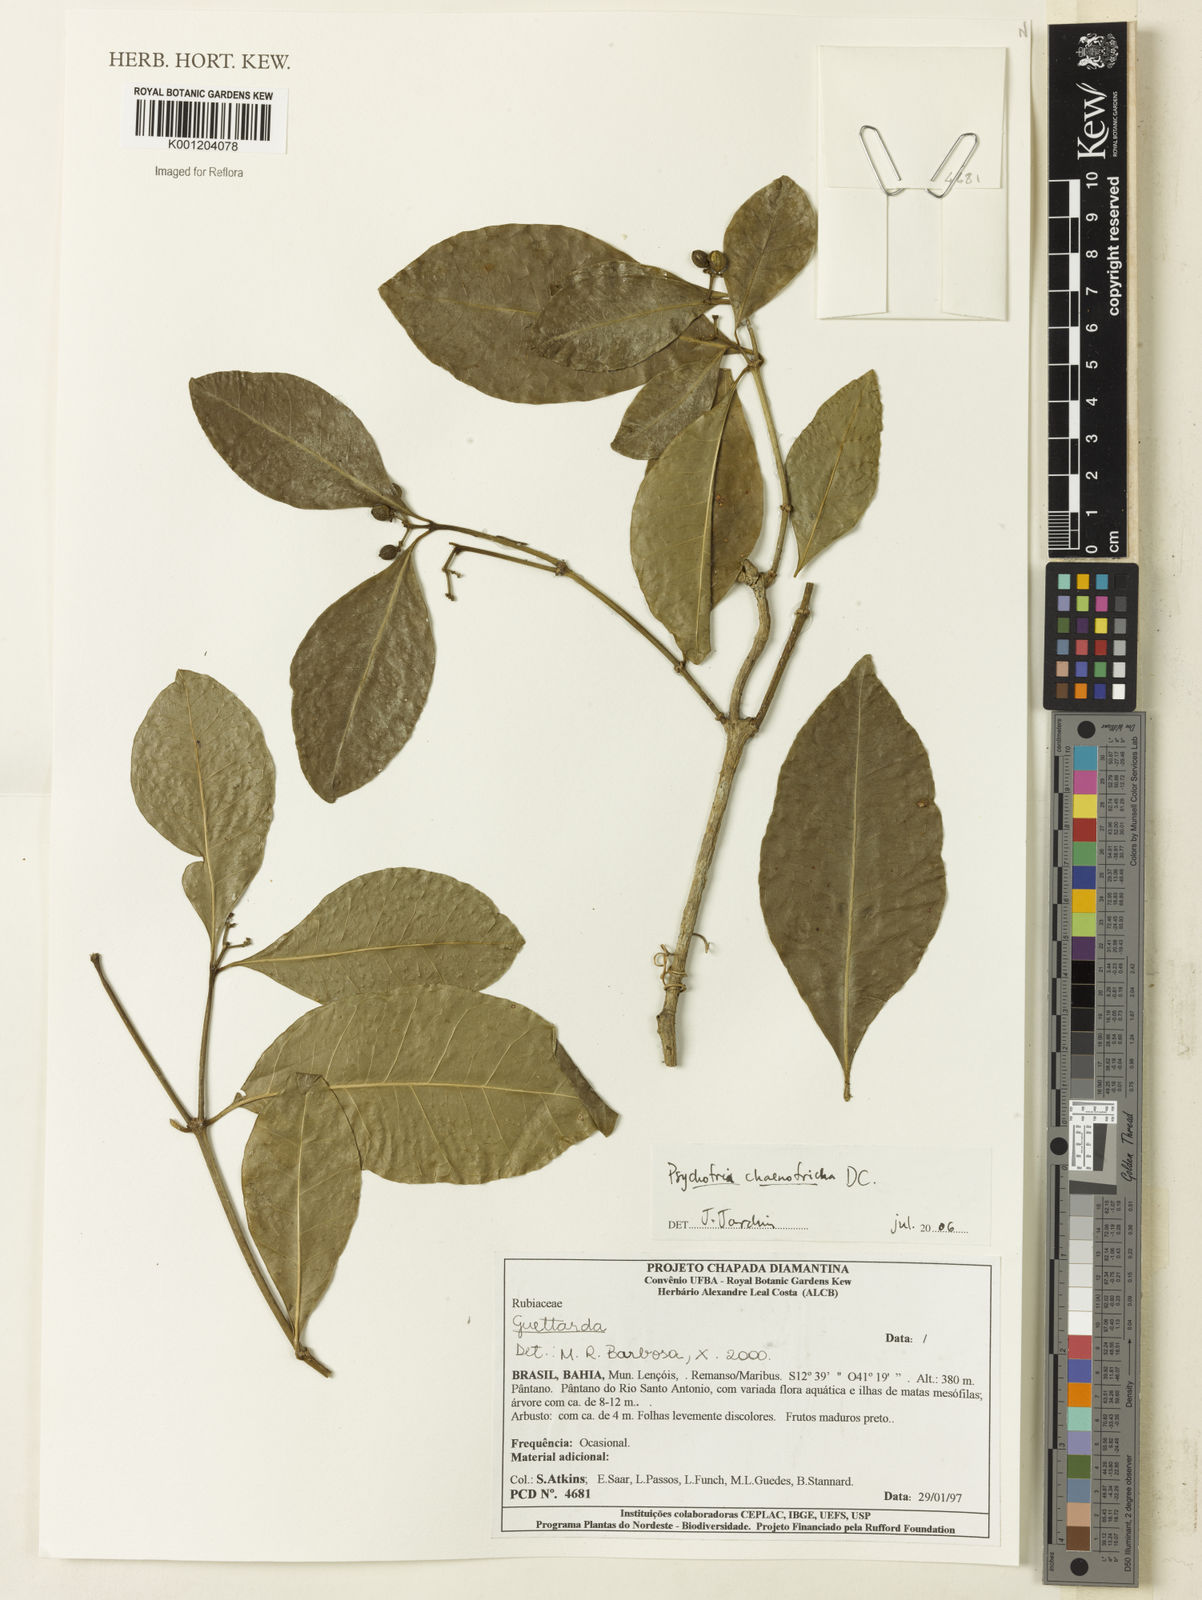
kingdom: Plantae
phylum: Tracheophyta
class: Magnoliopsida
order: Gentianales
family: Rubiaceae
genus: Eumachia
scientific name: Eumachia chaenotricha
